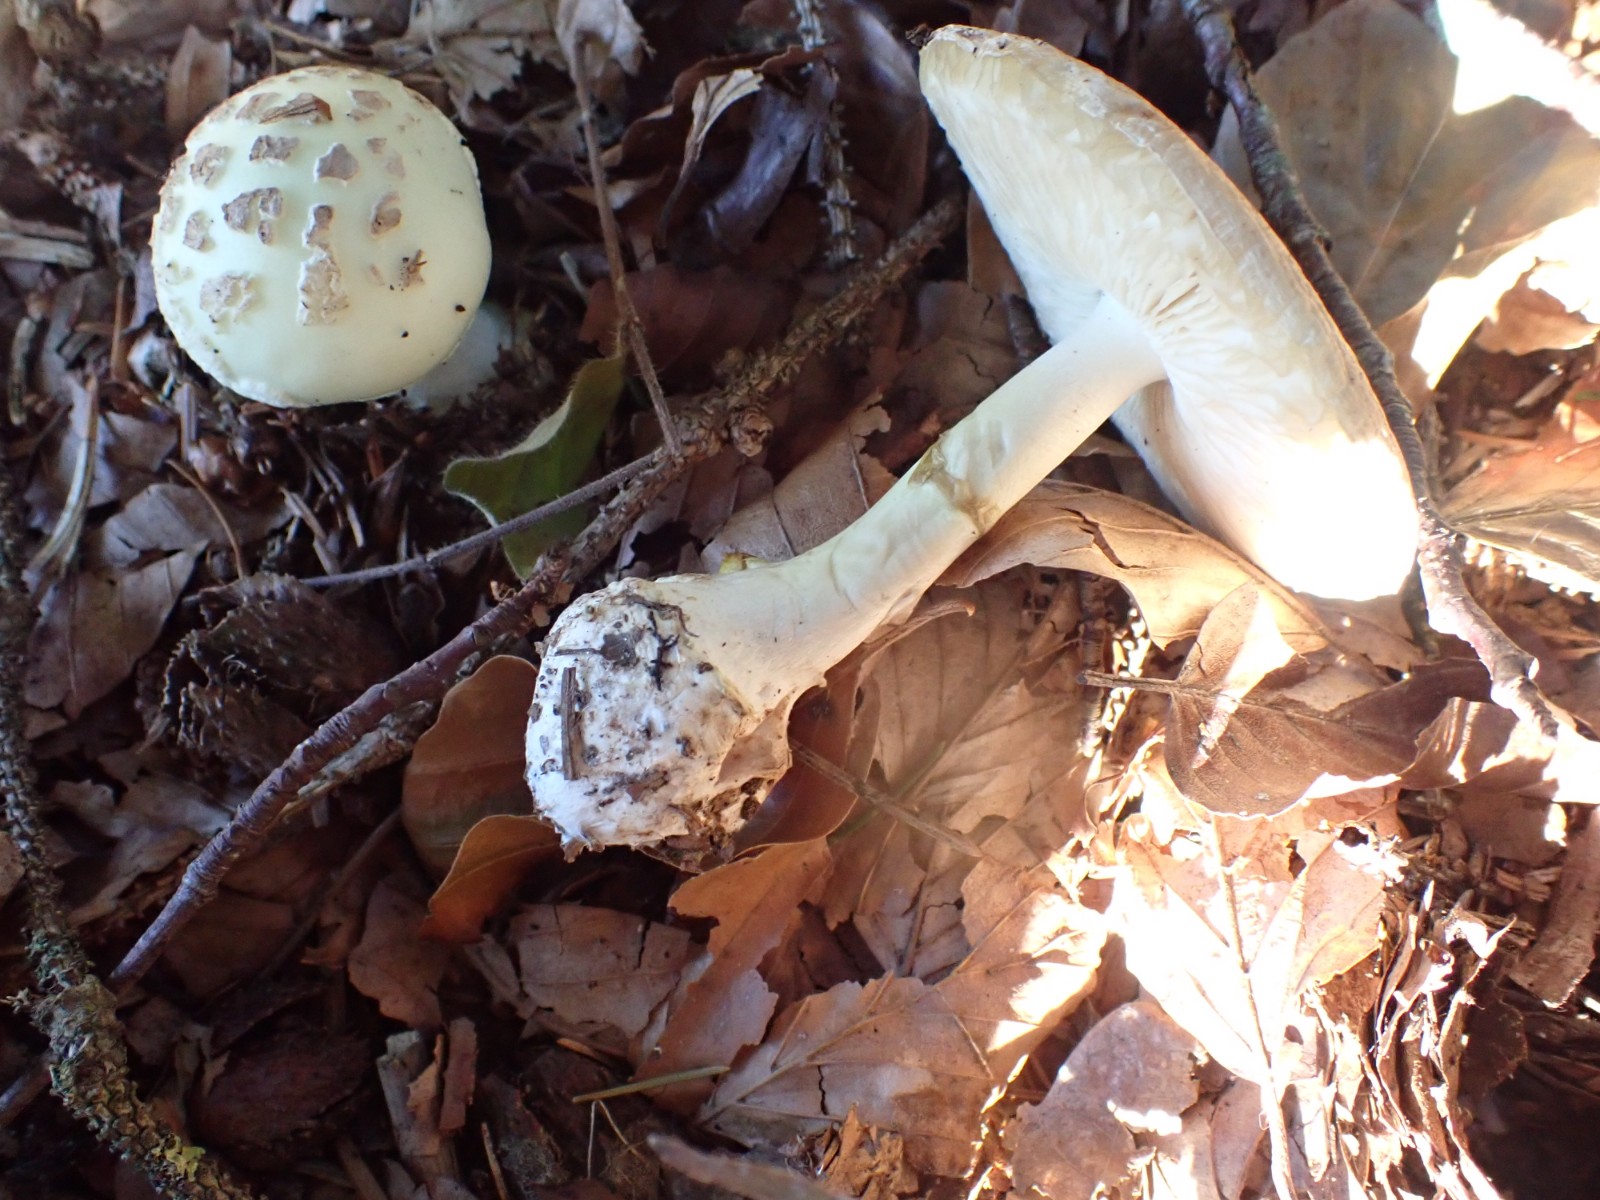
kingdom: Fungi
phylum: Basidiomycota
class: Agaricomycetes
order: Agaricales
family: Amanitaceae
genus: Amanita
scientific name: Amanita citrina
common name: kugleknoldet fluesvamp
